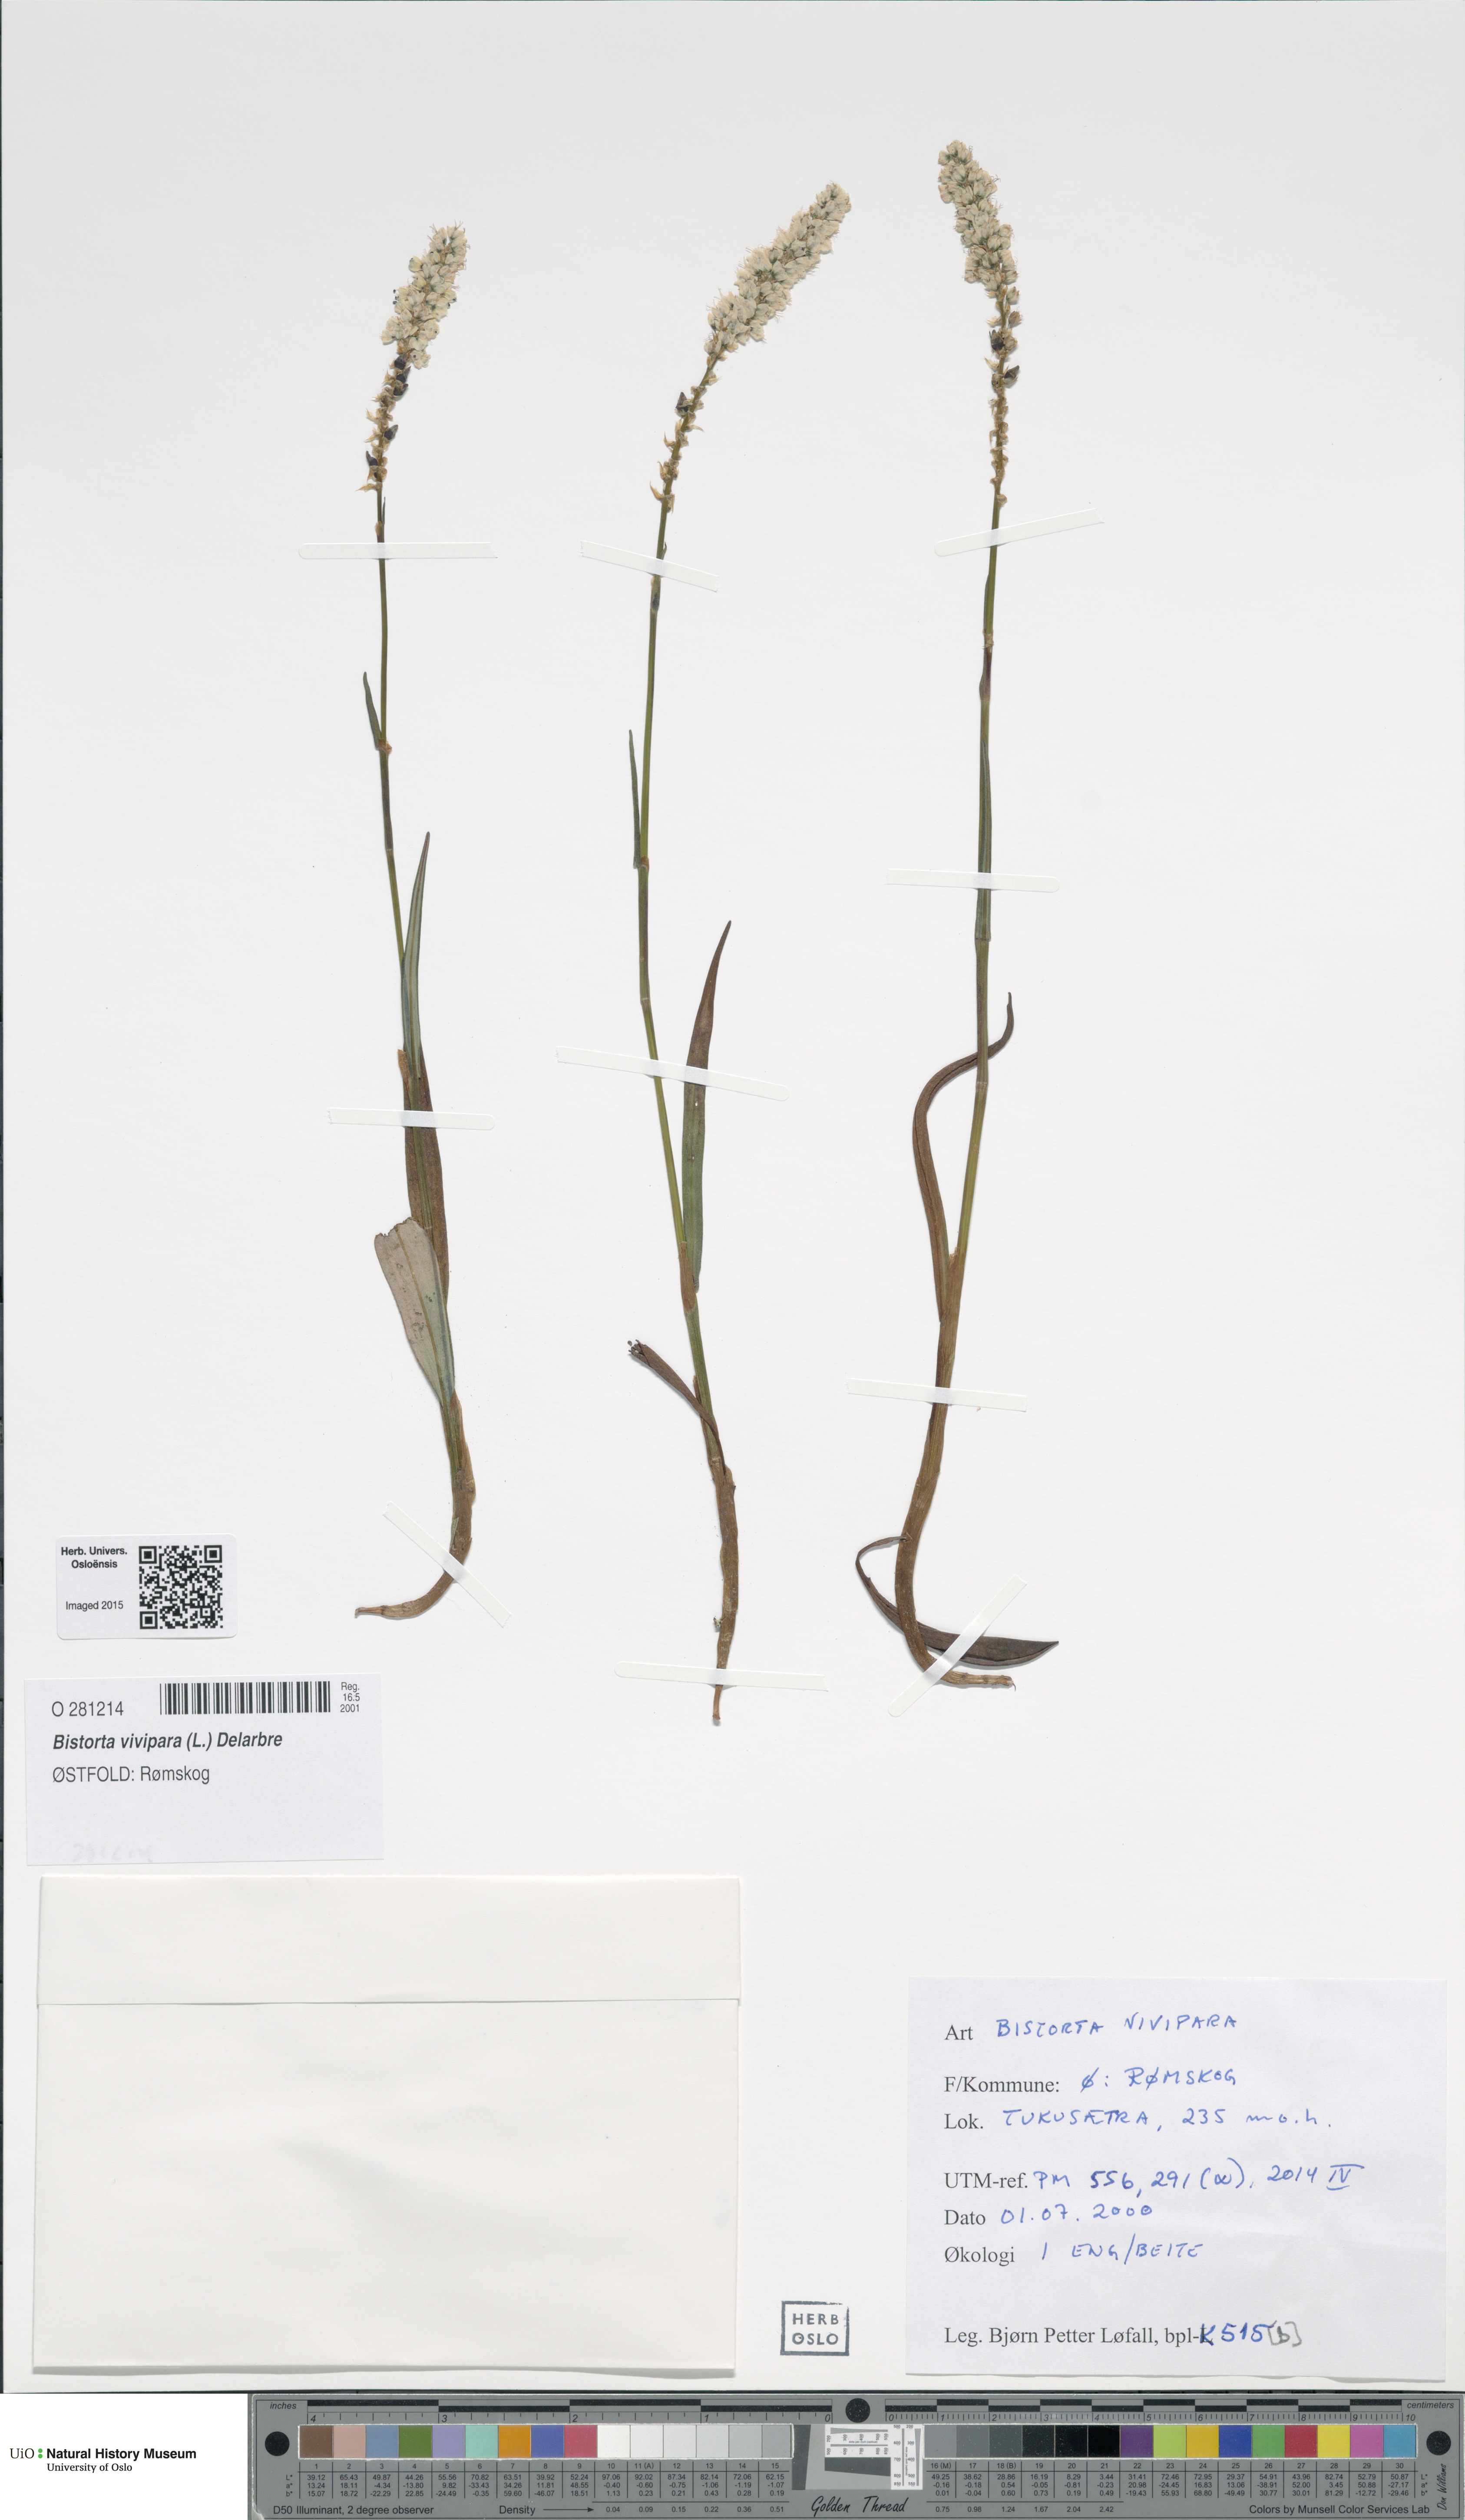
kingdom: Plantae
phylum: Tracheophyta
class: Magnoliopsida
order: Caryophyllales
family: Polygonaceae
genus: Bistorta
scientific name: Bistorta vivipara
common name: Alpine bistort
